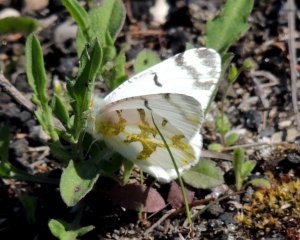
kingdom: Animalia
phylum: Arthropoda
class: Insecta
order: Lepidoptera
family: Pieridae
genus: Euchloe
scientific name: Euchloe olympia
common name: Olympia Marble
